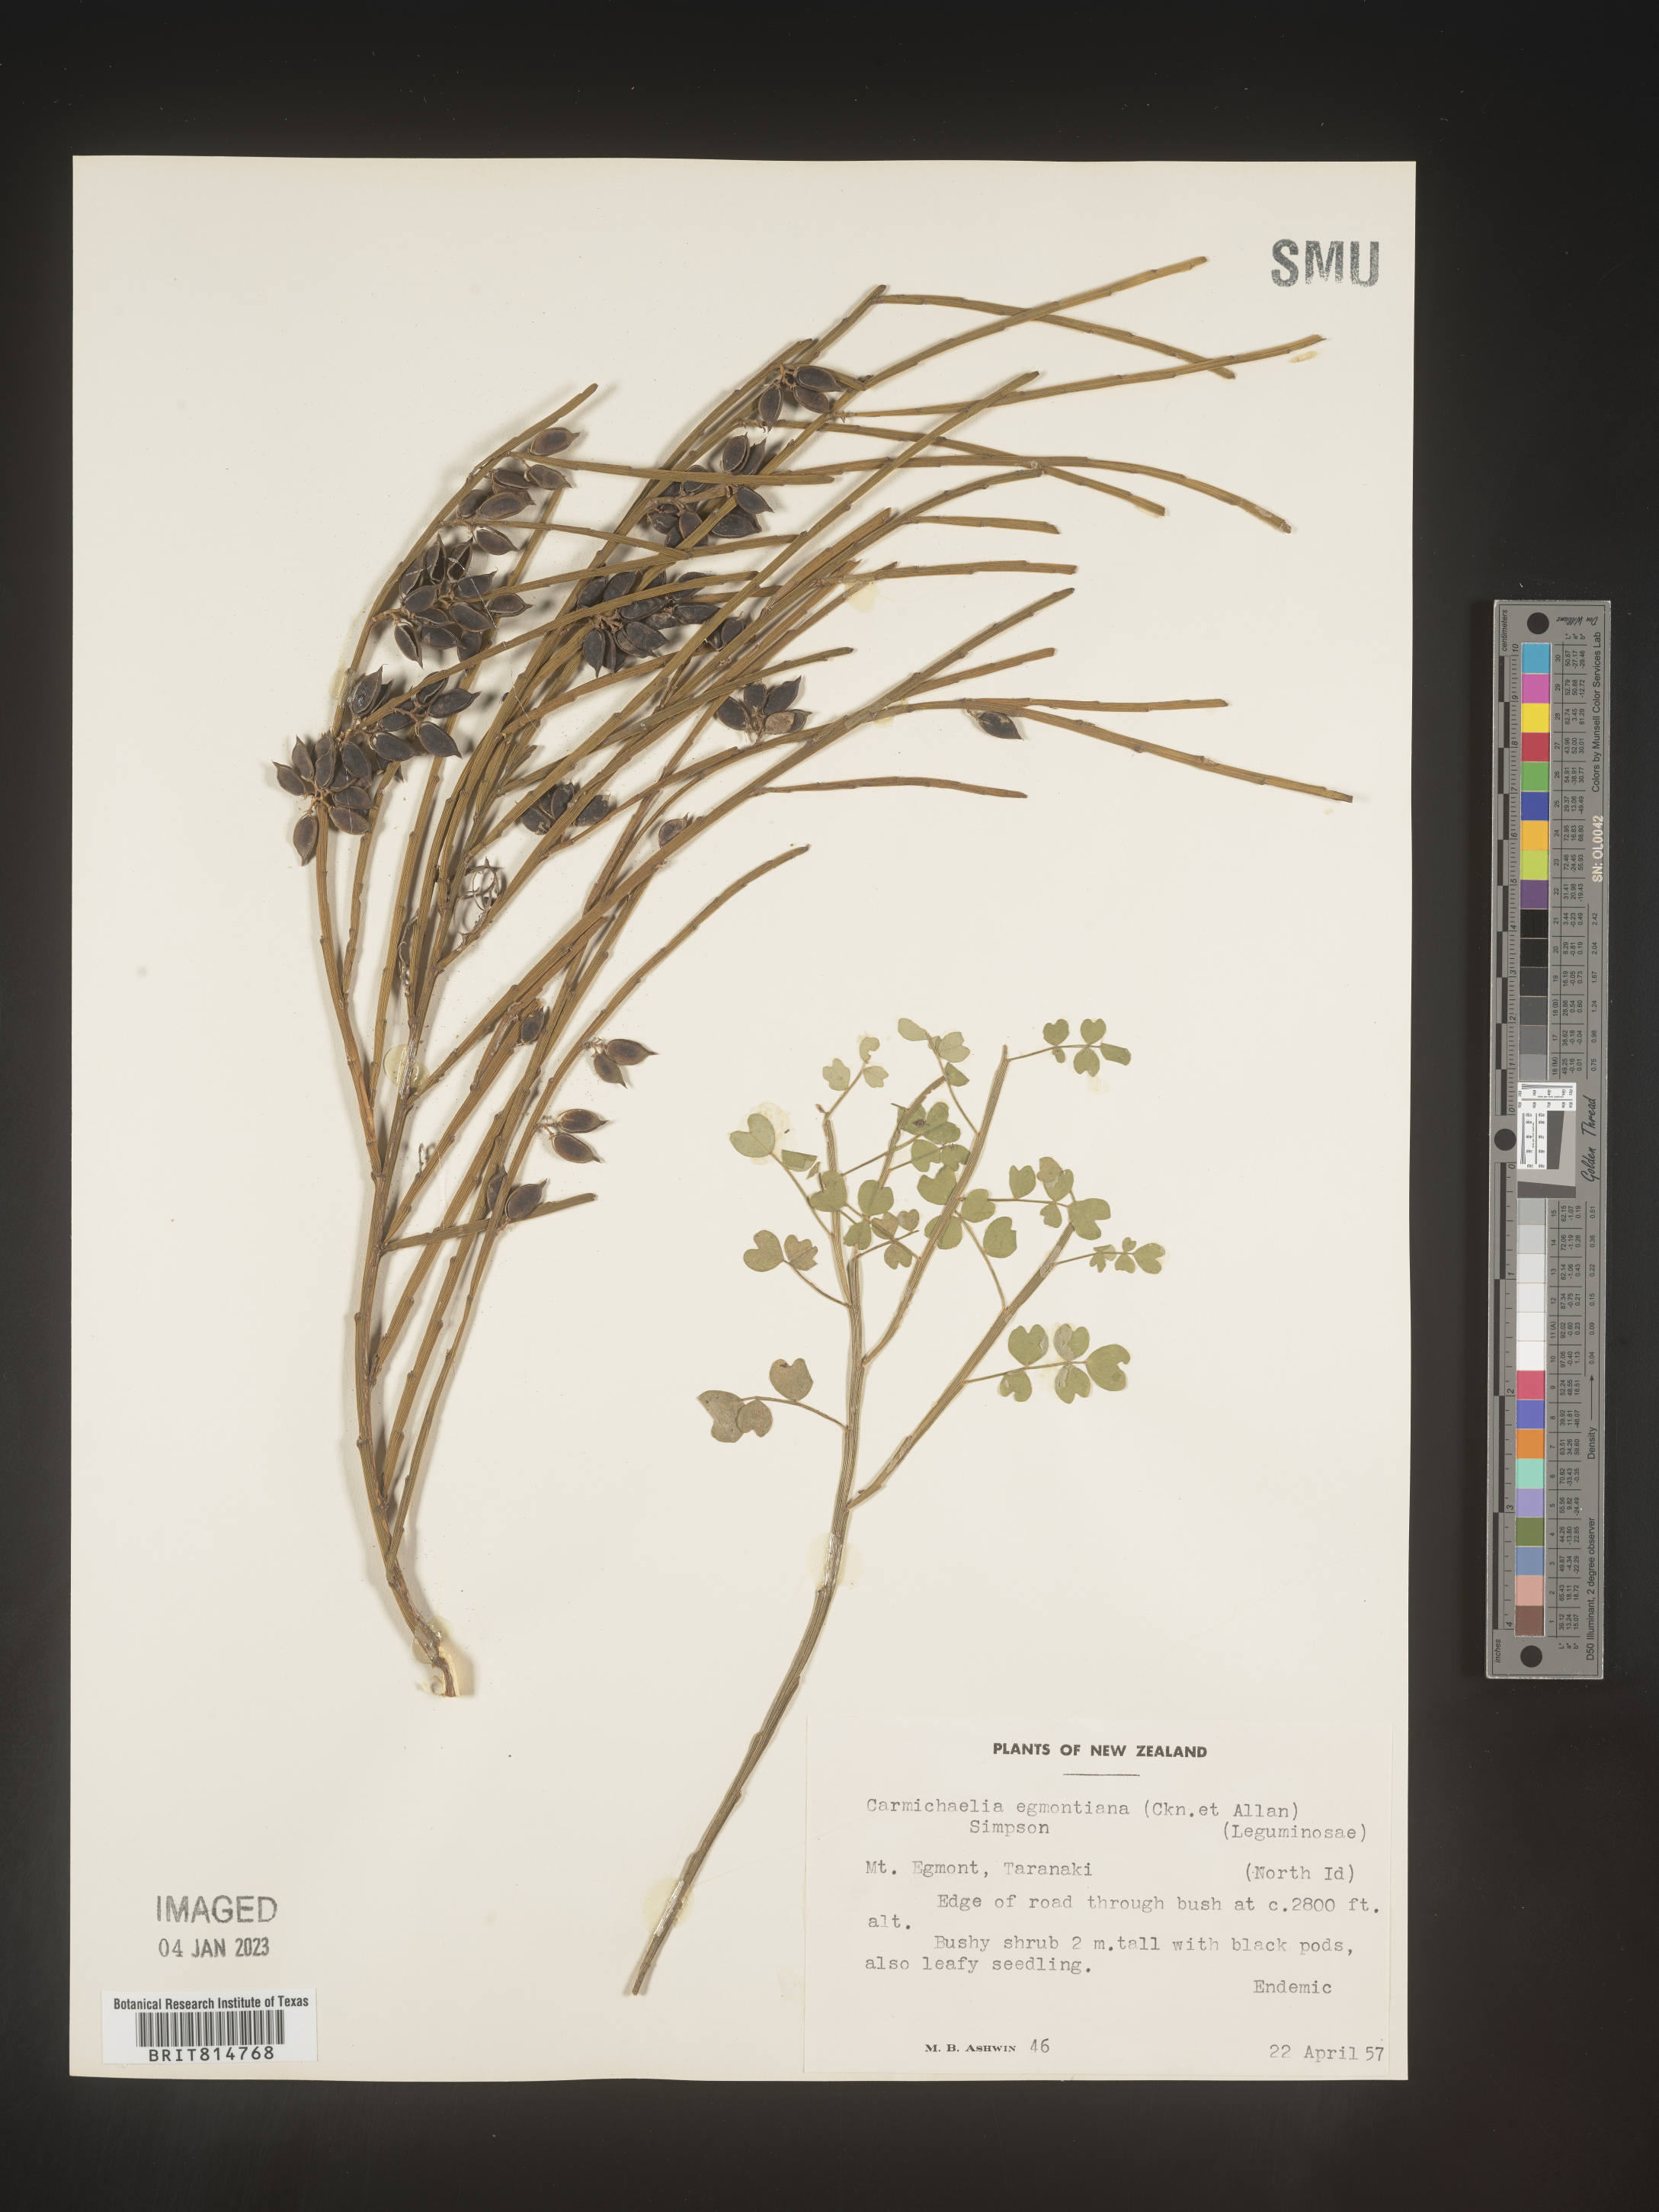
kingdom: Plantae
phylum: Tracheophyta
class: Magnoliopsida
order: Fabales
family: Fabaceae
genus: Carmichaelia
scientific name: Carmichaelia
